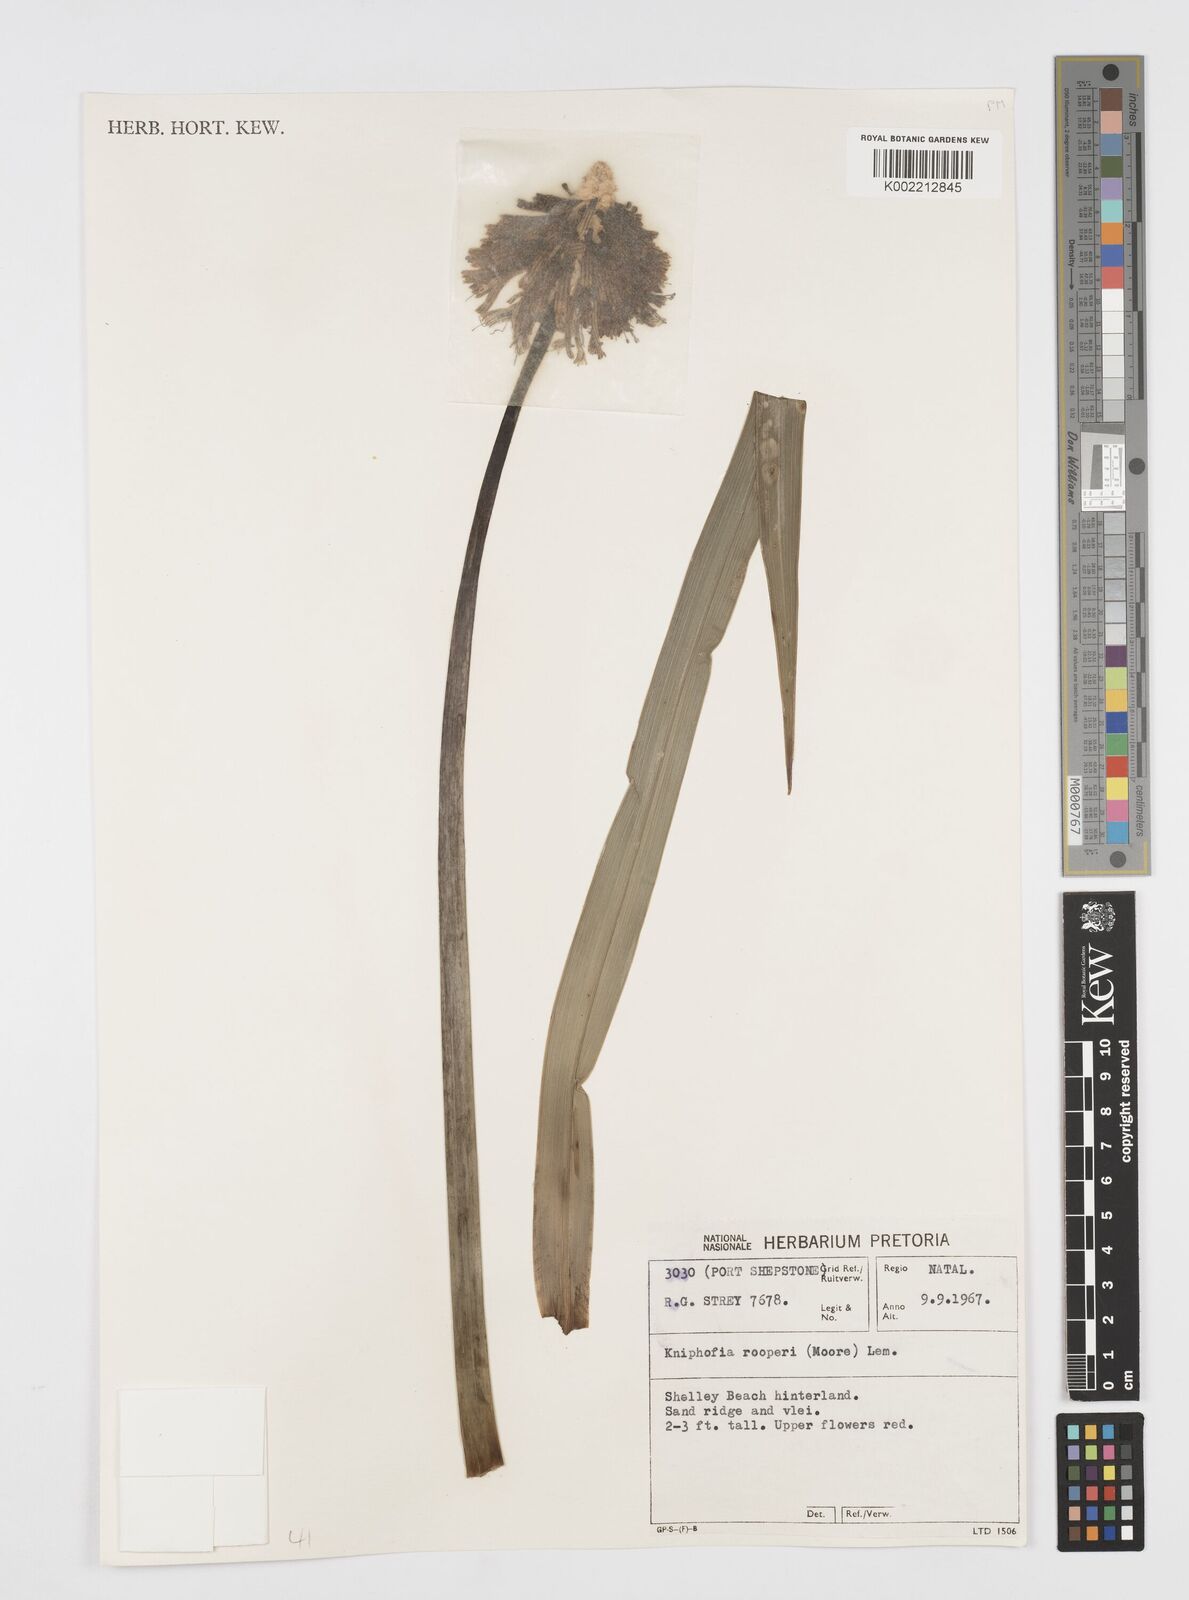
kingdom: Plantae
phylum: Tracheophyta
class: Liliopsida
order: Asparagales
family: Asphodelaceae
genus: Kniphofia
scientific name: Kniphofia rooperi
